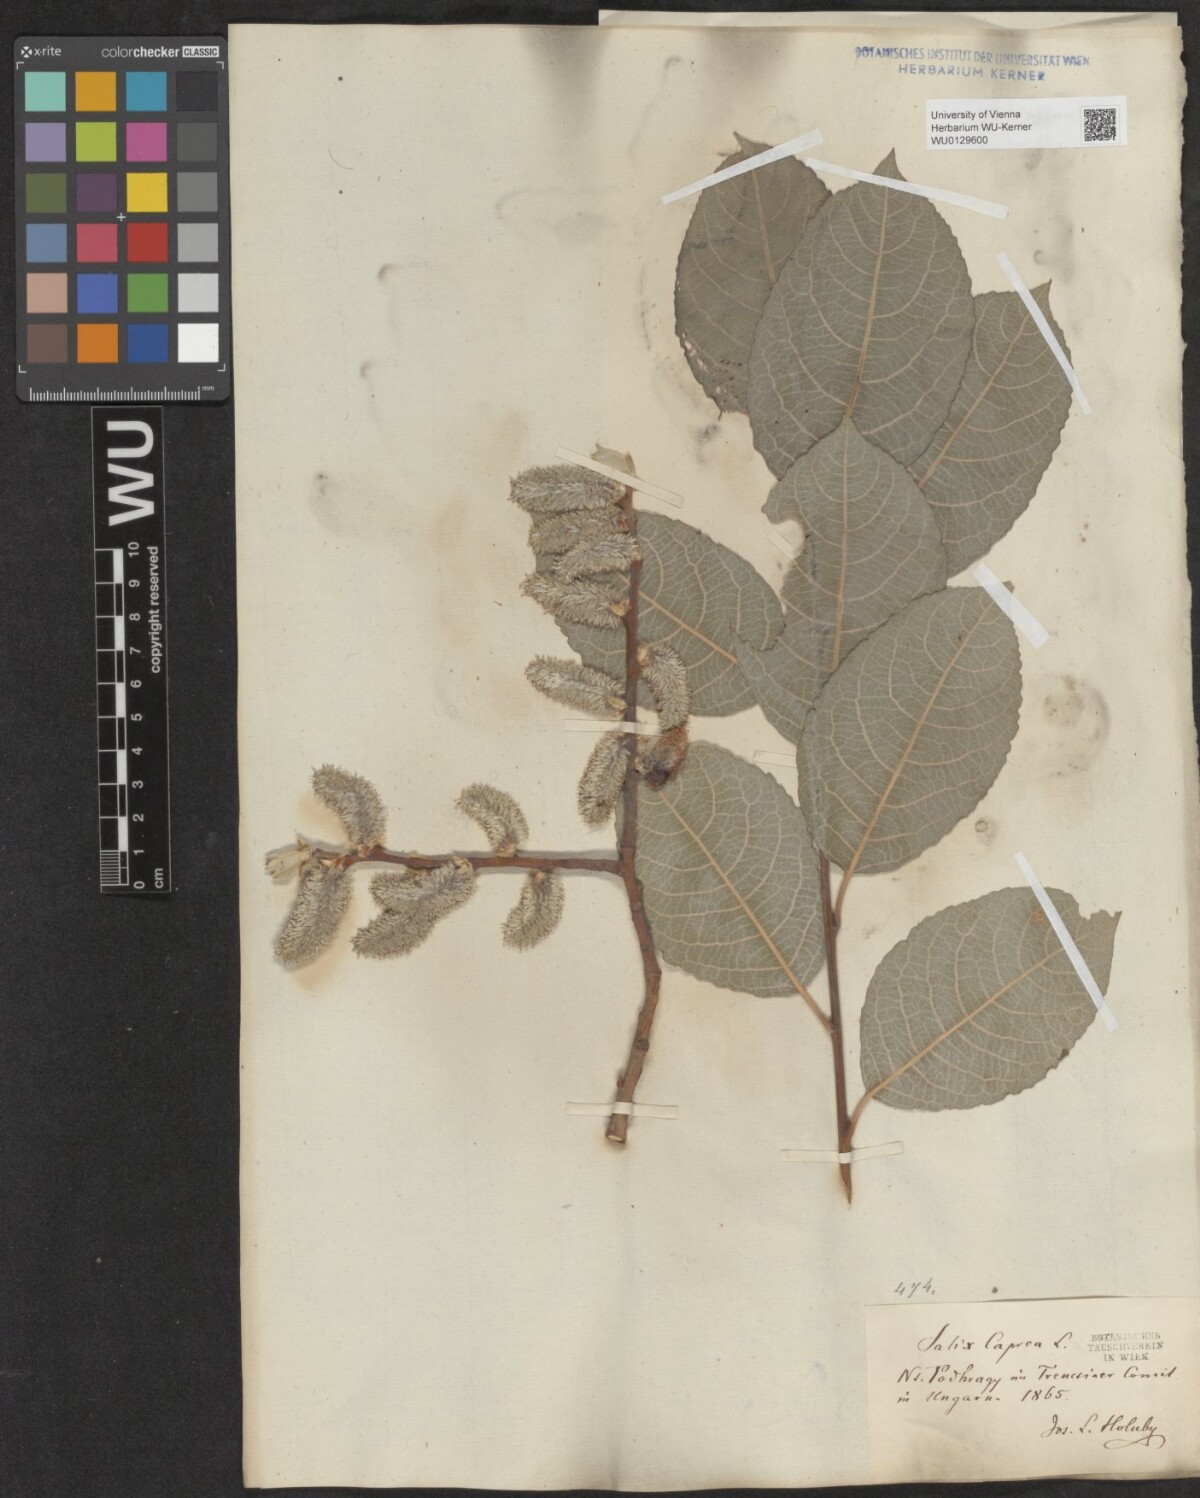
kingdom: Plantae
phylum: Tracheophyta
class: Magnoliopsida
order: Malpighiales
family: Salicaceae
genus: Salix
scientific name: Salix caprea
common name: Goat willow
